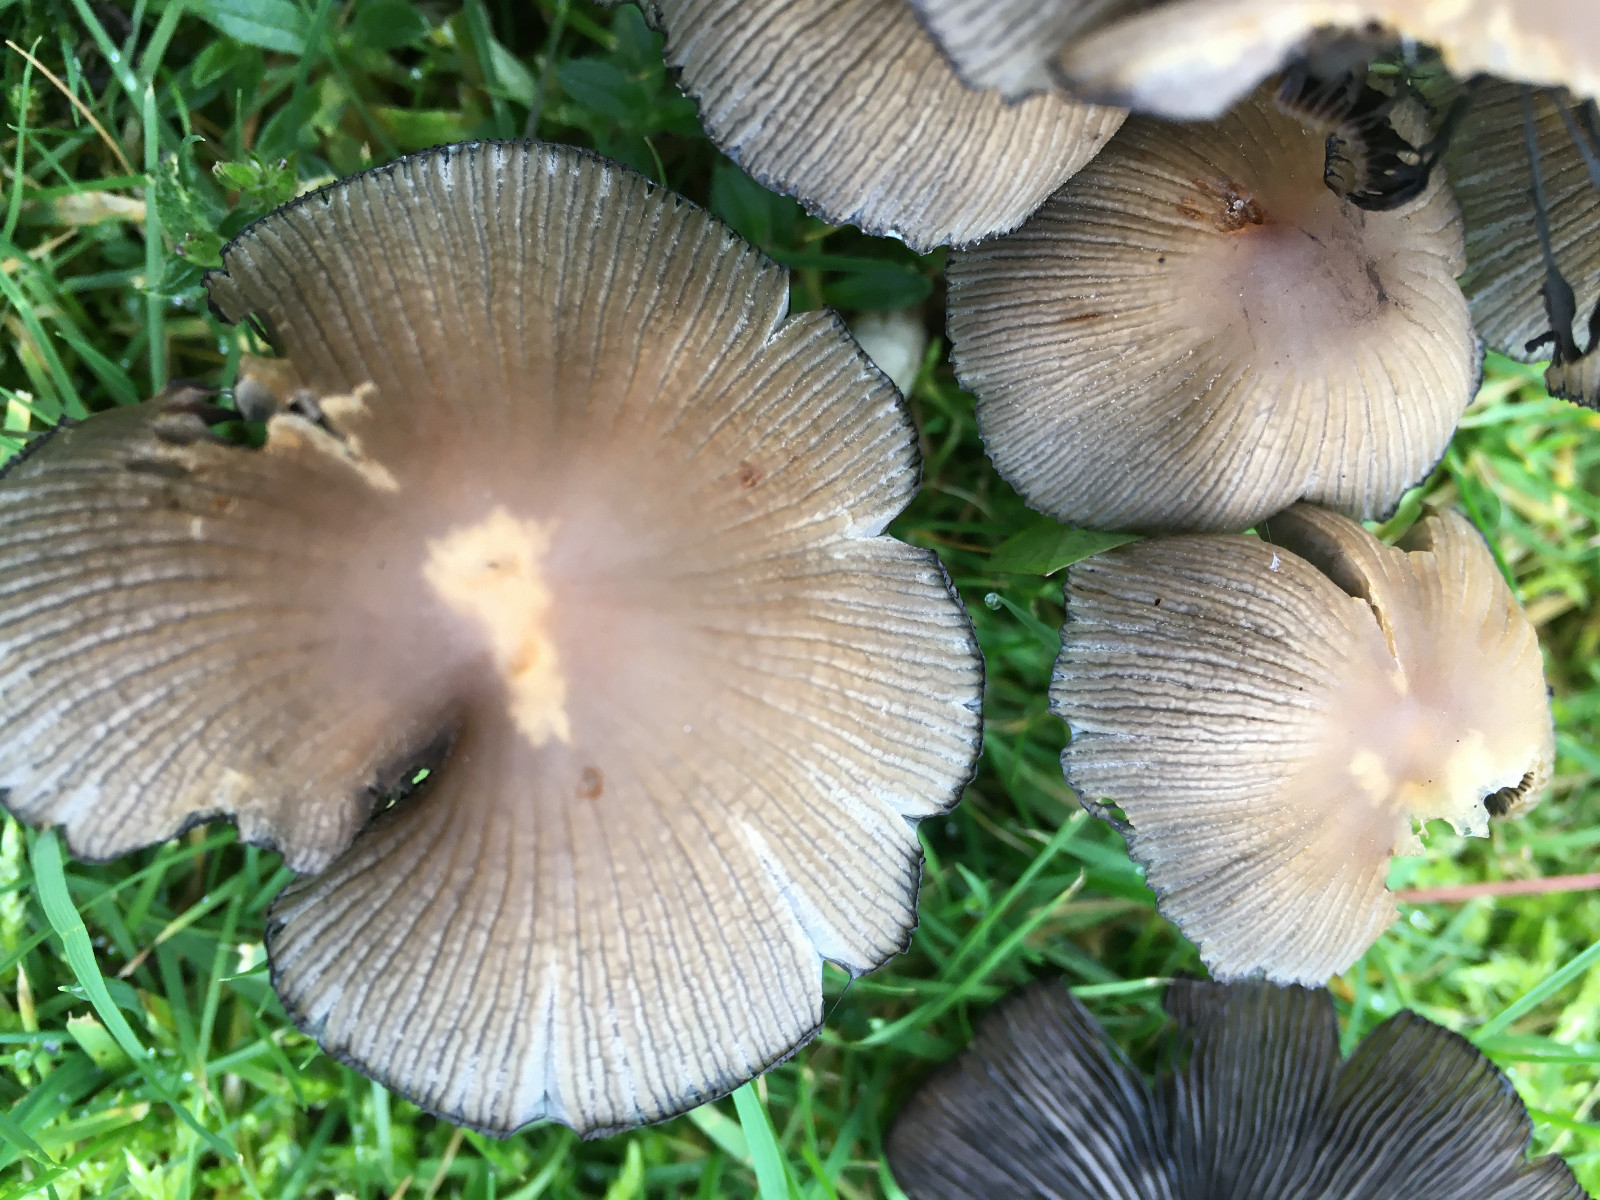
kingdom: Fungi
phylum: Basidiomycota
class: Agaricomycetes
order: Agaricales
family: Psathyrellaceae
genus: Coprinellus
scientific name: Coprinellus micaceus
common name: glimmer-blækhat
